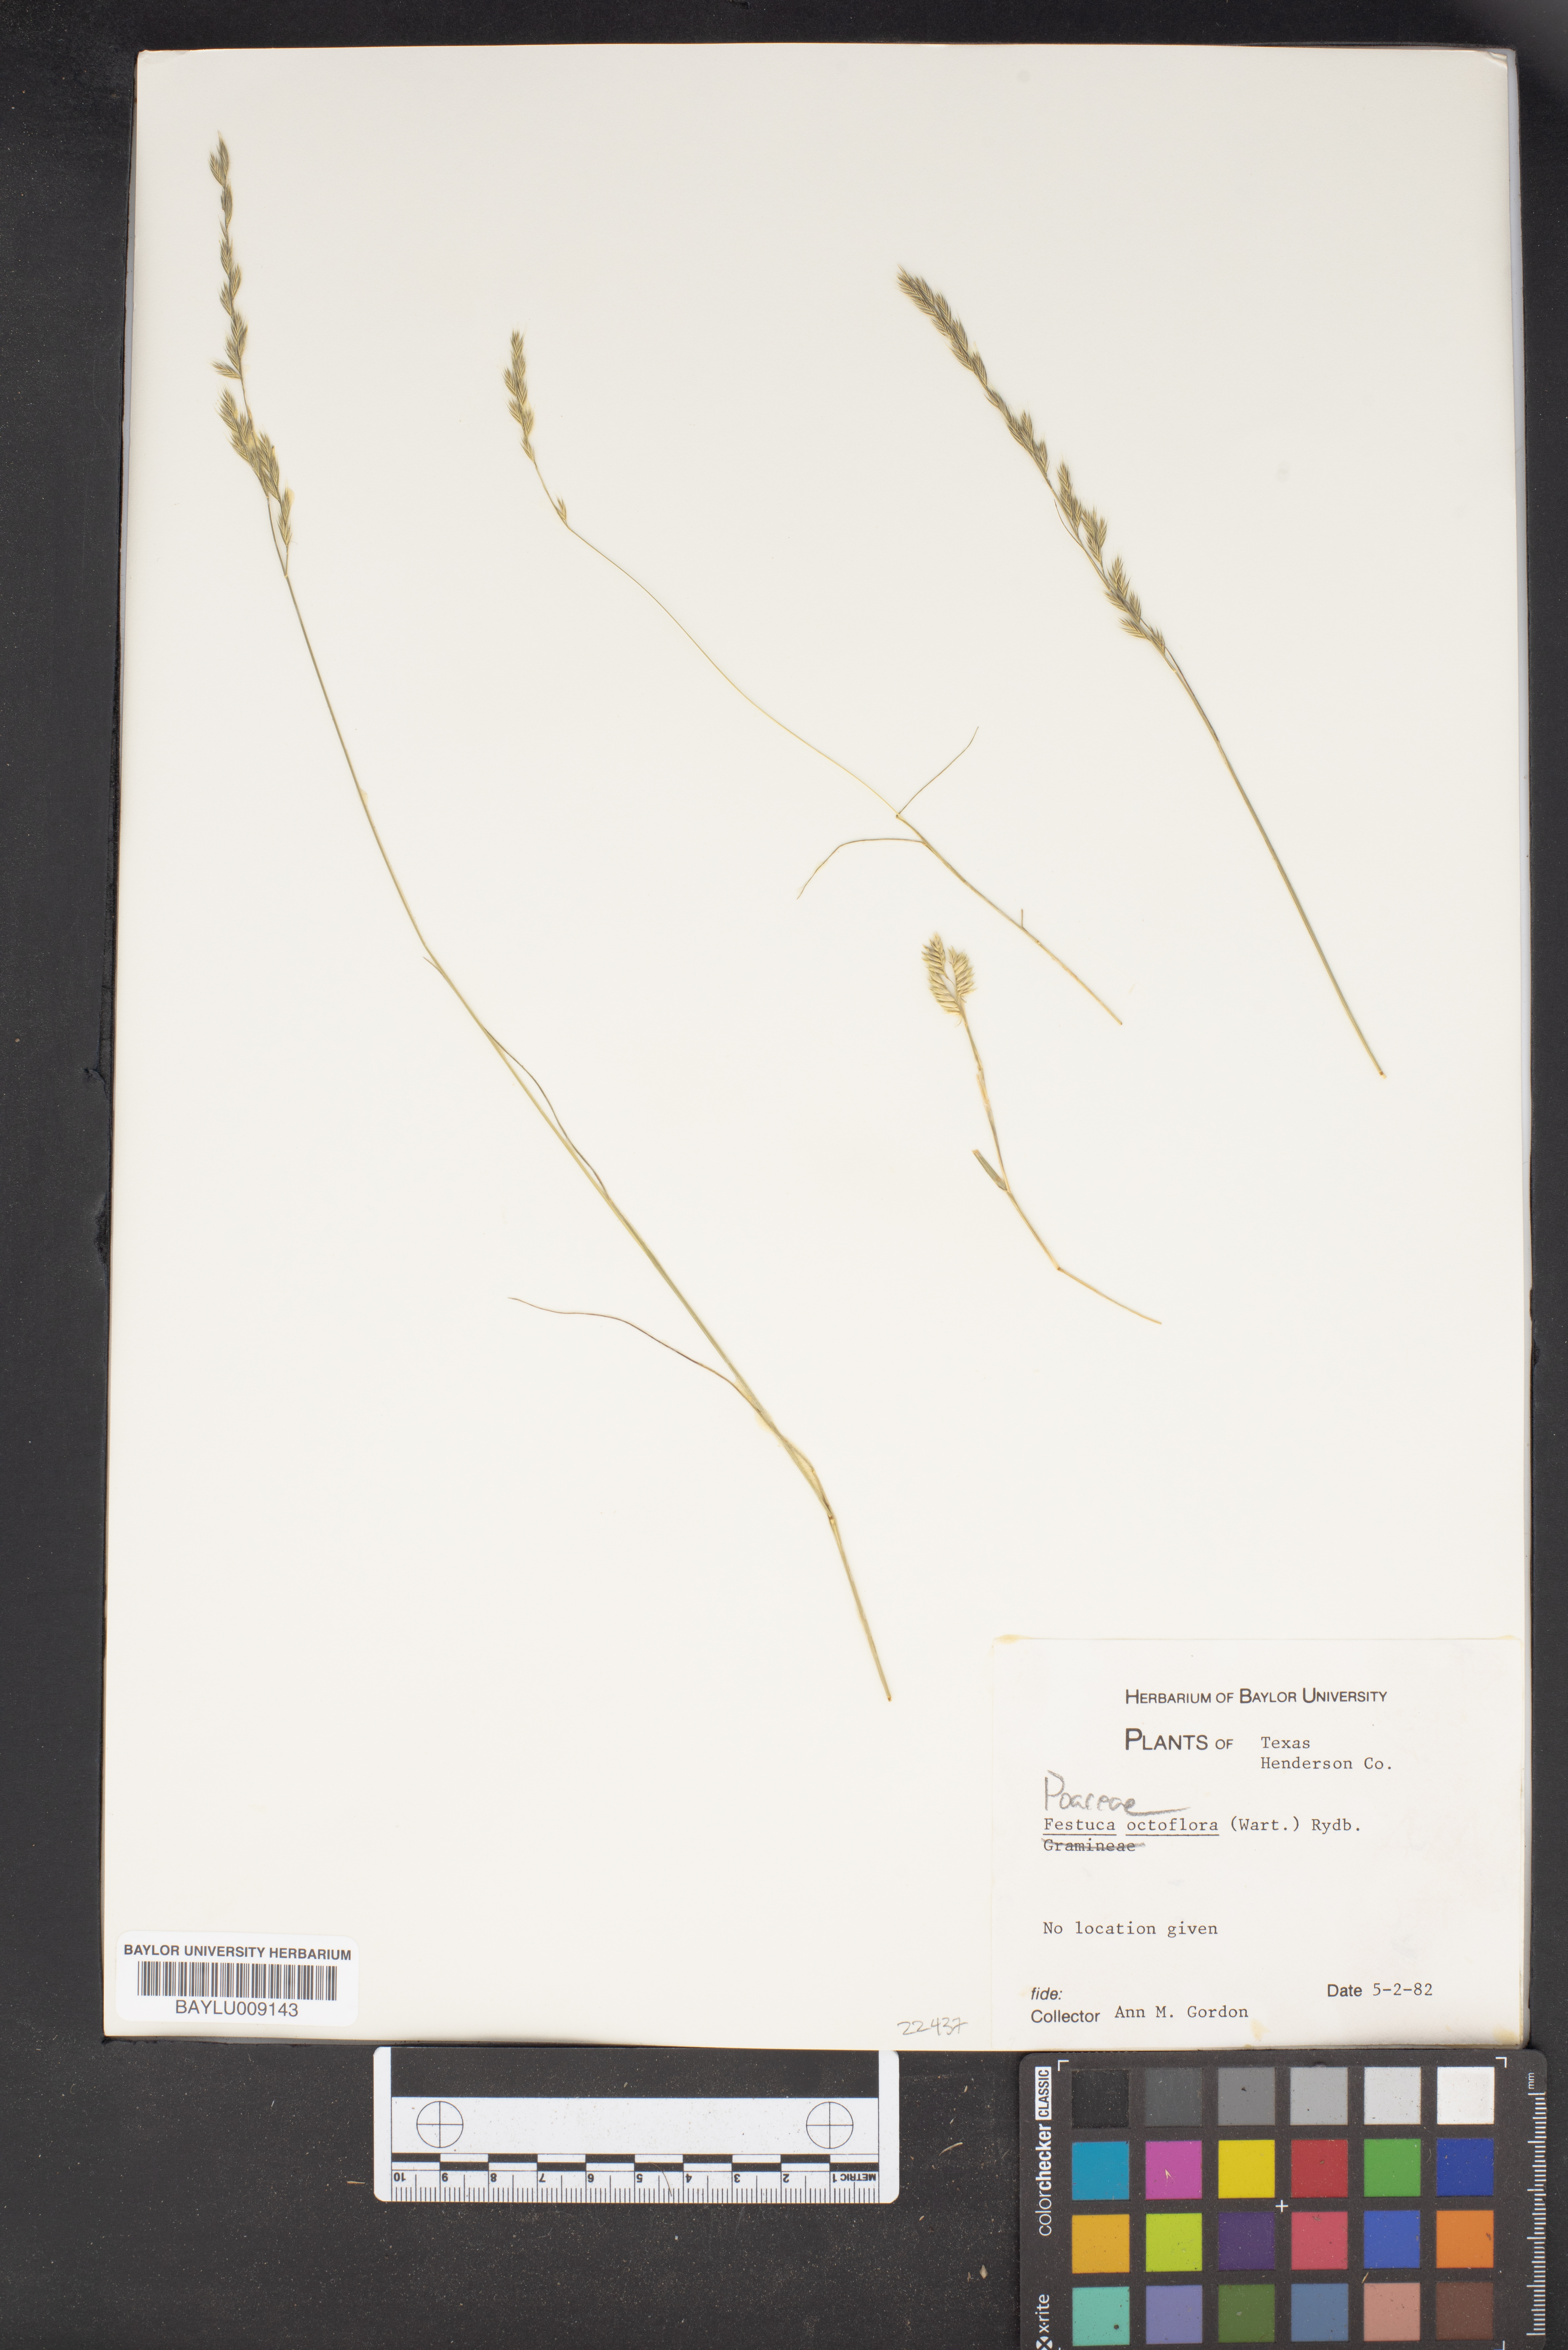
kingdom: Plantae
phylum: Tracheophyta
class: Liliopsida
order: Poales
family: Poaceae
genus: Festuca
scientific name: Festuca octoflora
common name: Sixweeks grass
